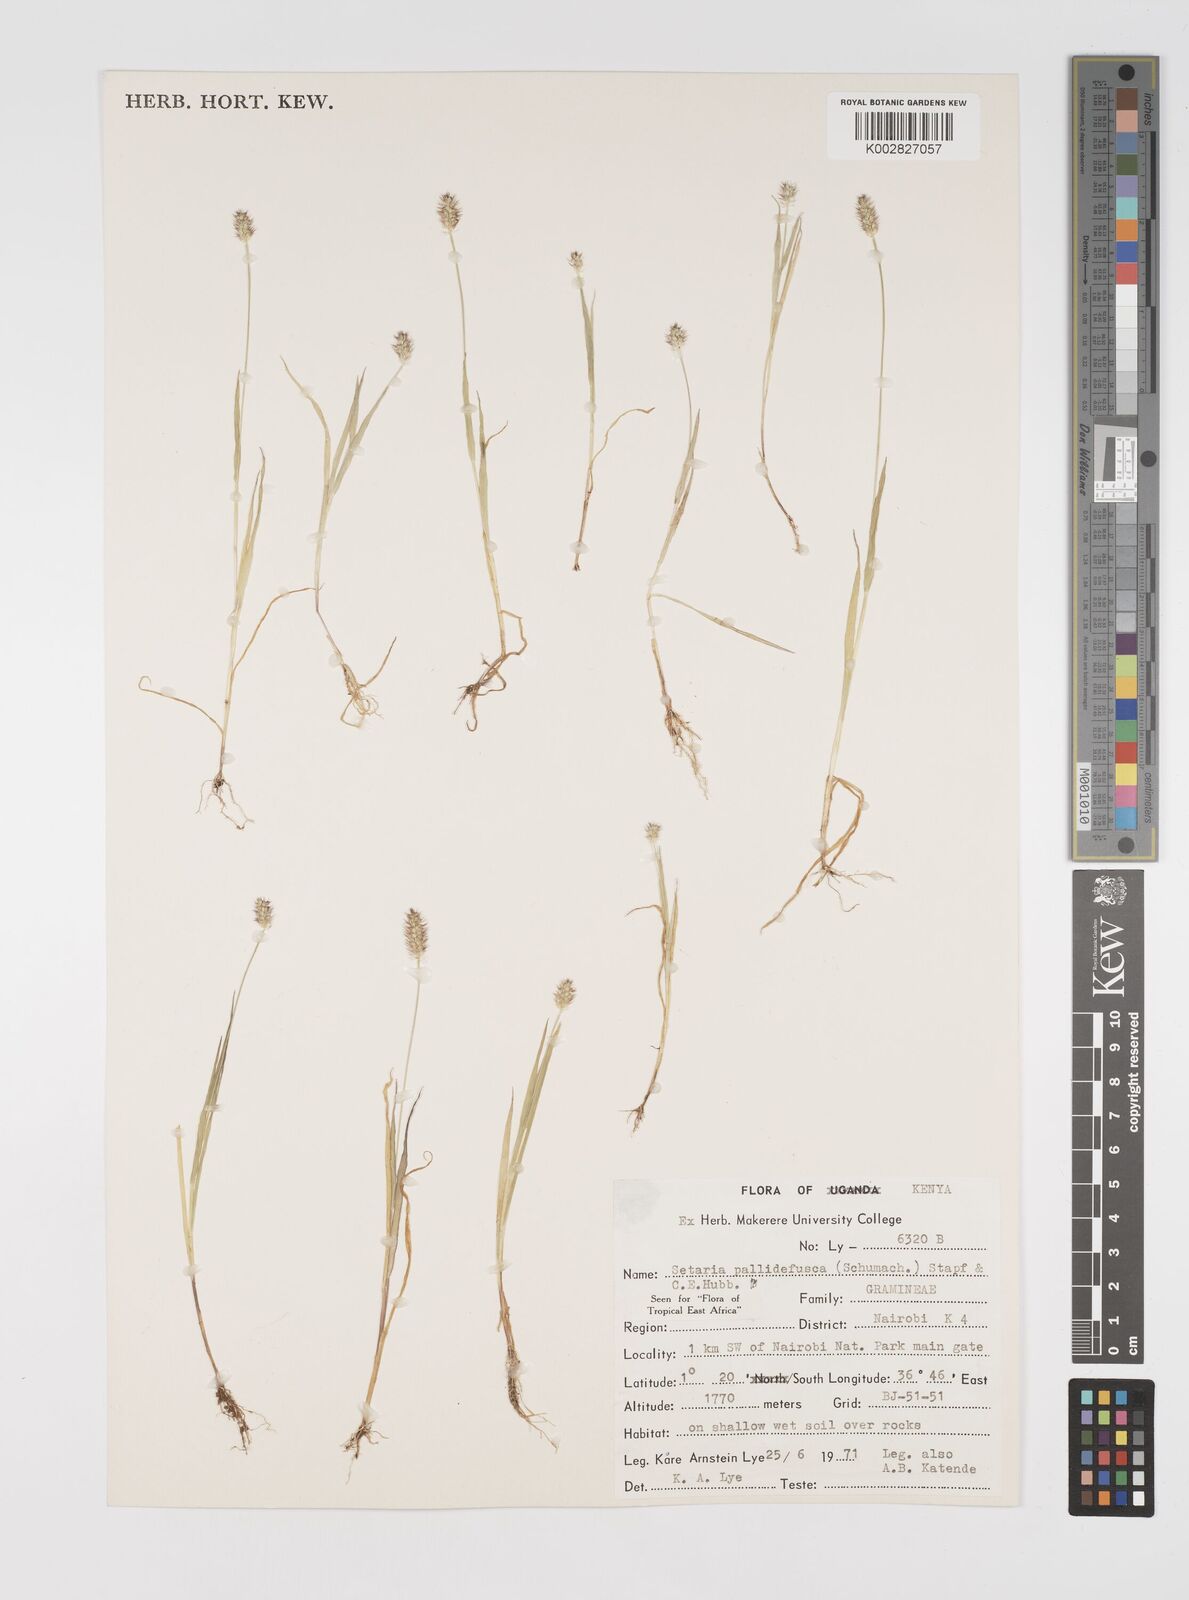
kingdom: Plantae
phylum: Tracheophyta
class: Liliopsida
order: Poales
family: Poaceae
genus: Setaria
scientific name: Setaria pumila
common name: Yellow bristle-grass
